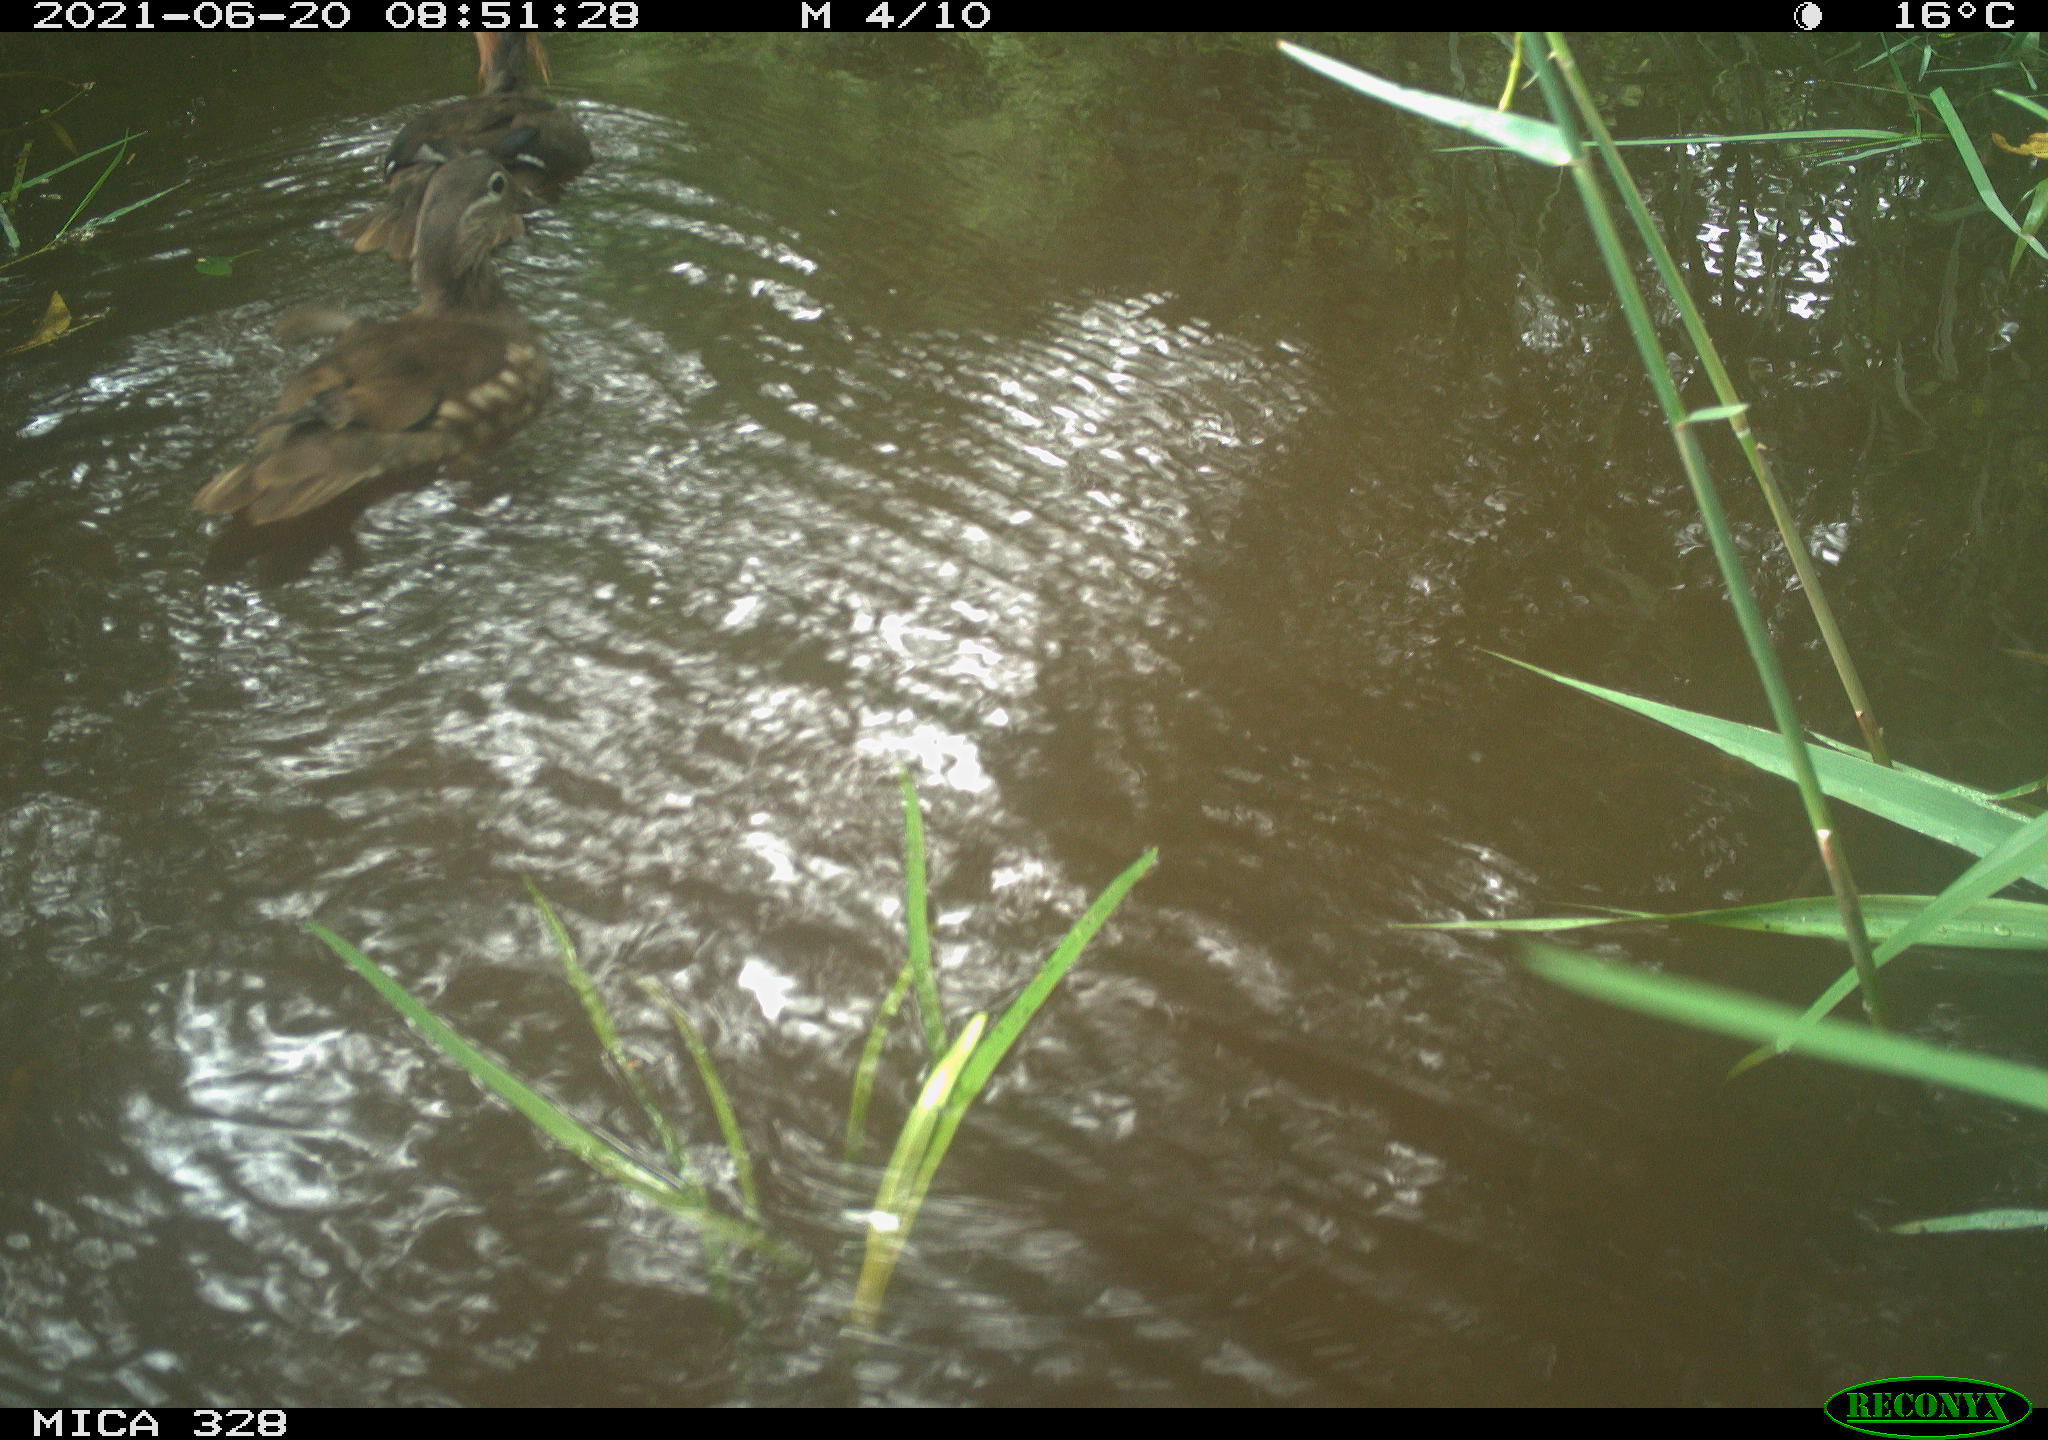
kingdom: Animalia
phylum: Chordata
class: Aves
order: Anseriformes
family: Anatidae
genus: Aix
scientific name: Aix galericulata
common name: Mandarin duck
